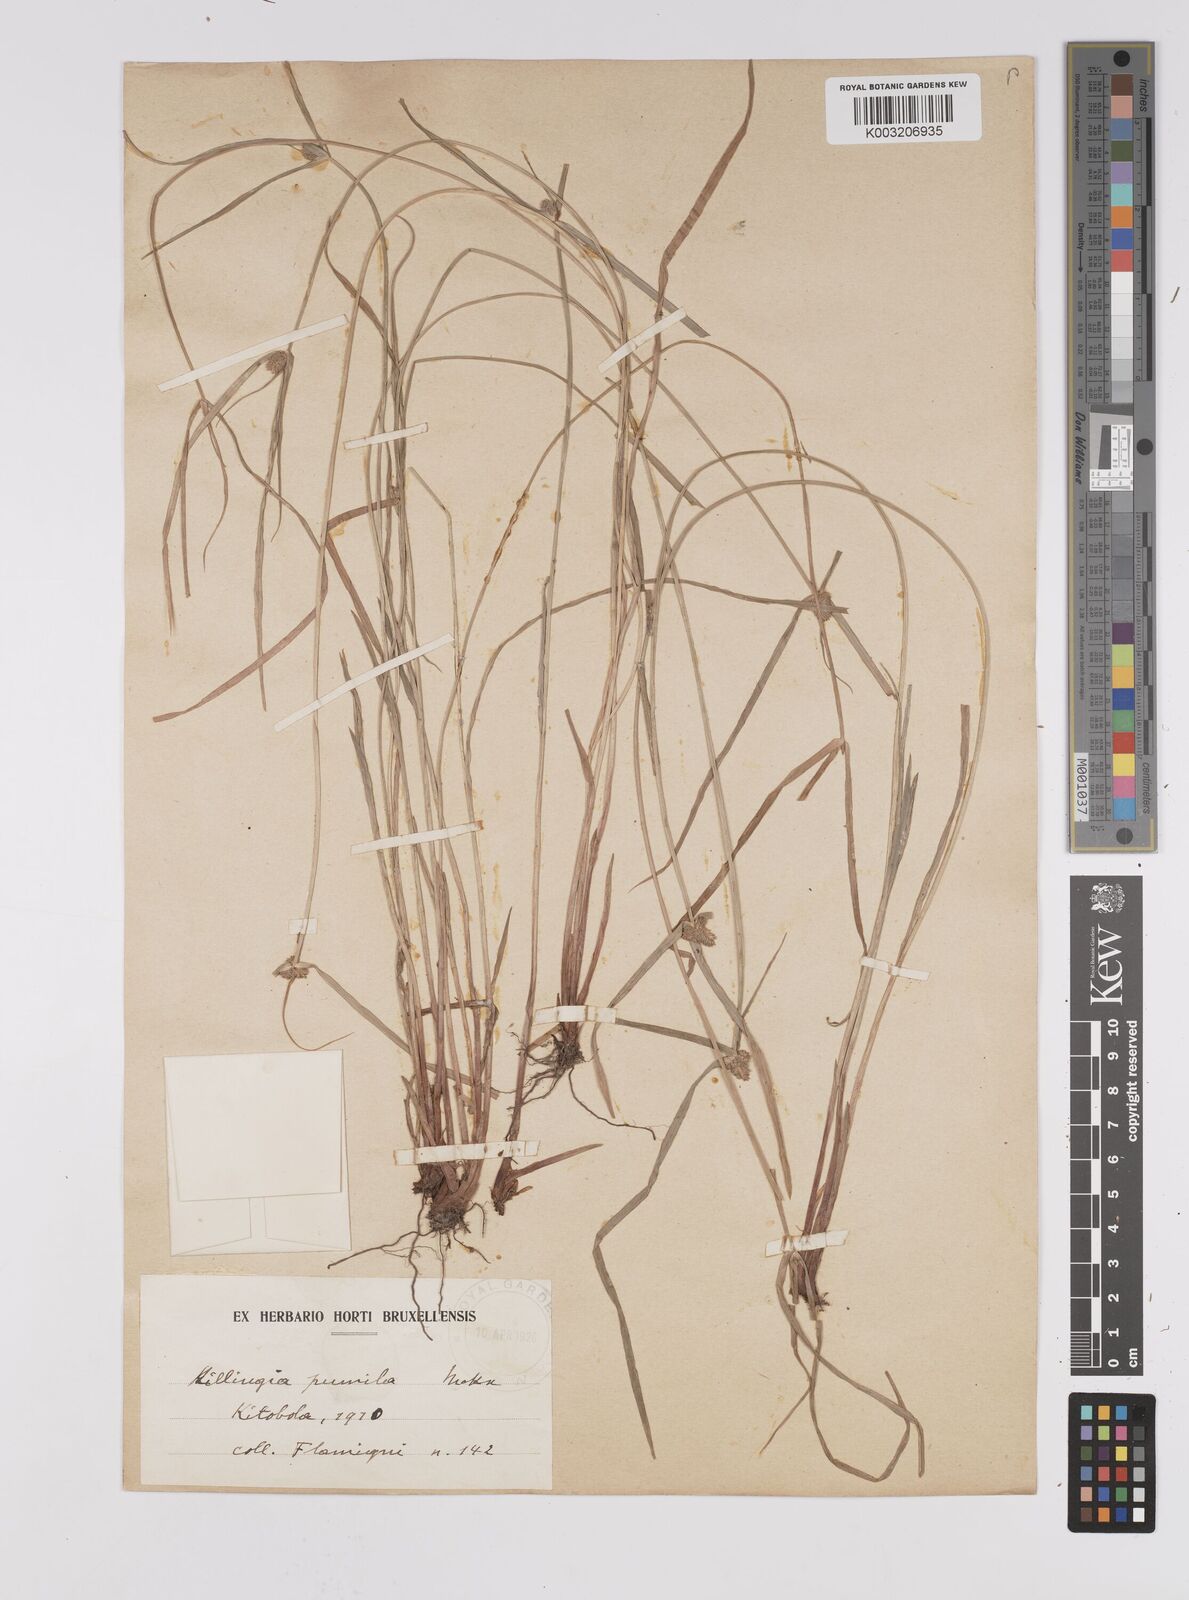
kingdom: Plantae
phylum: Tracheophyta
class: Liliopsida
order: Poales
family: Cyperaceae
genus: Cyperus
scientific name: Cyperus hortensis
